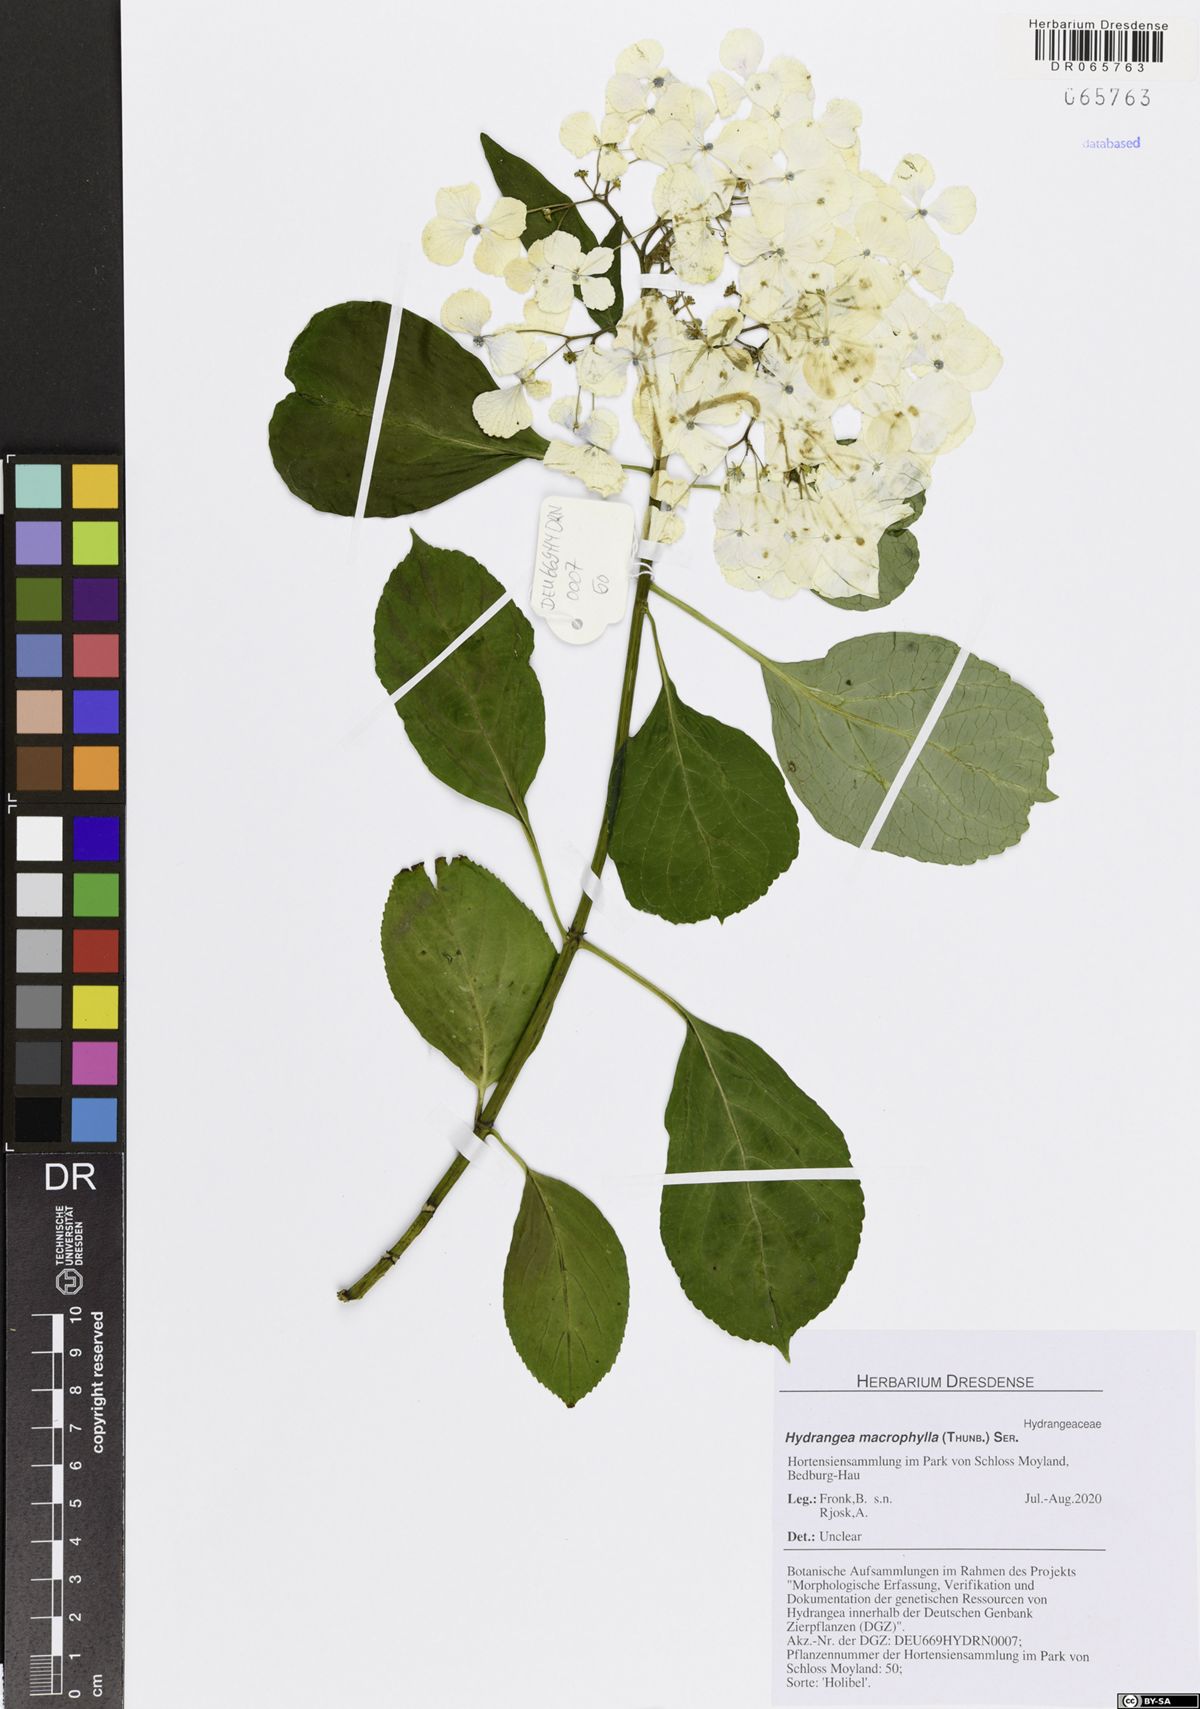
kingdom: Plantae
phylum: Tracheophyta
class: Magnoliopsida
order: Cornales
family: Hydrangeaceae
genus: Hydrangea
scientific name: Hydrangea macrophylla
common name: Hydrangea
